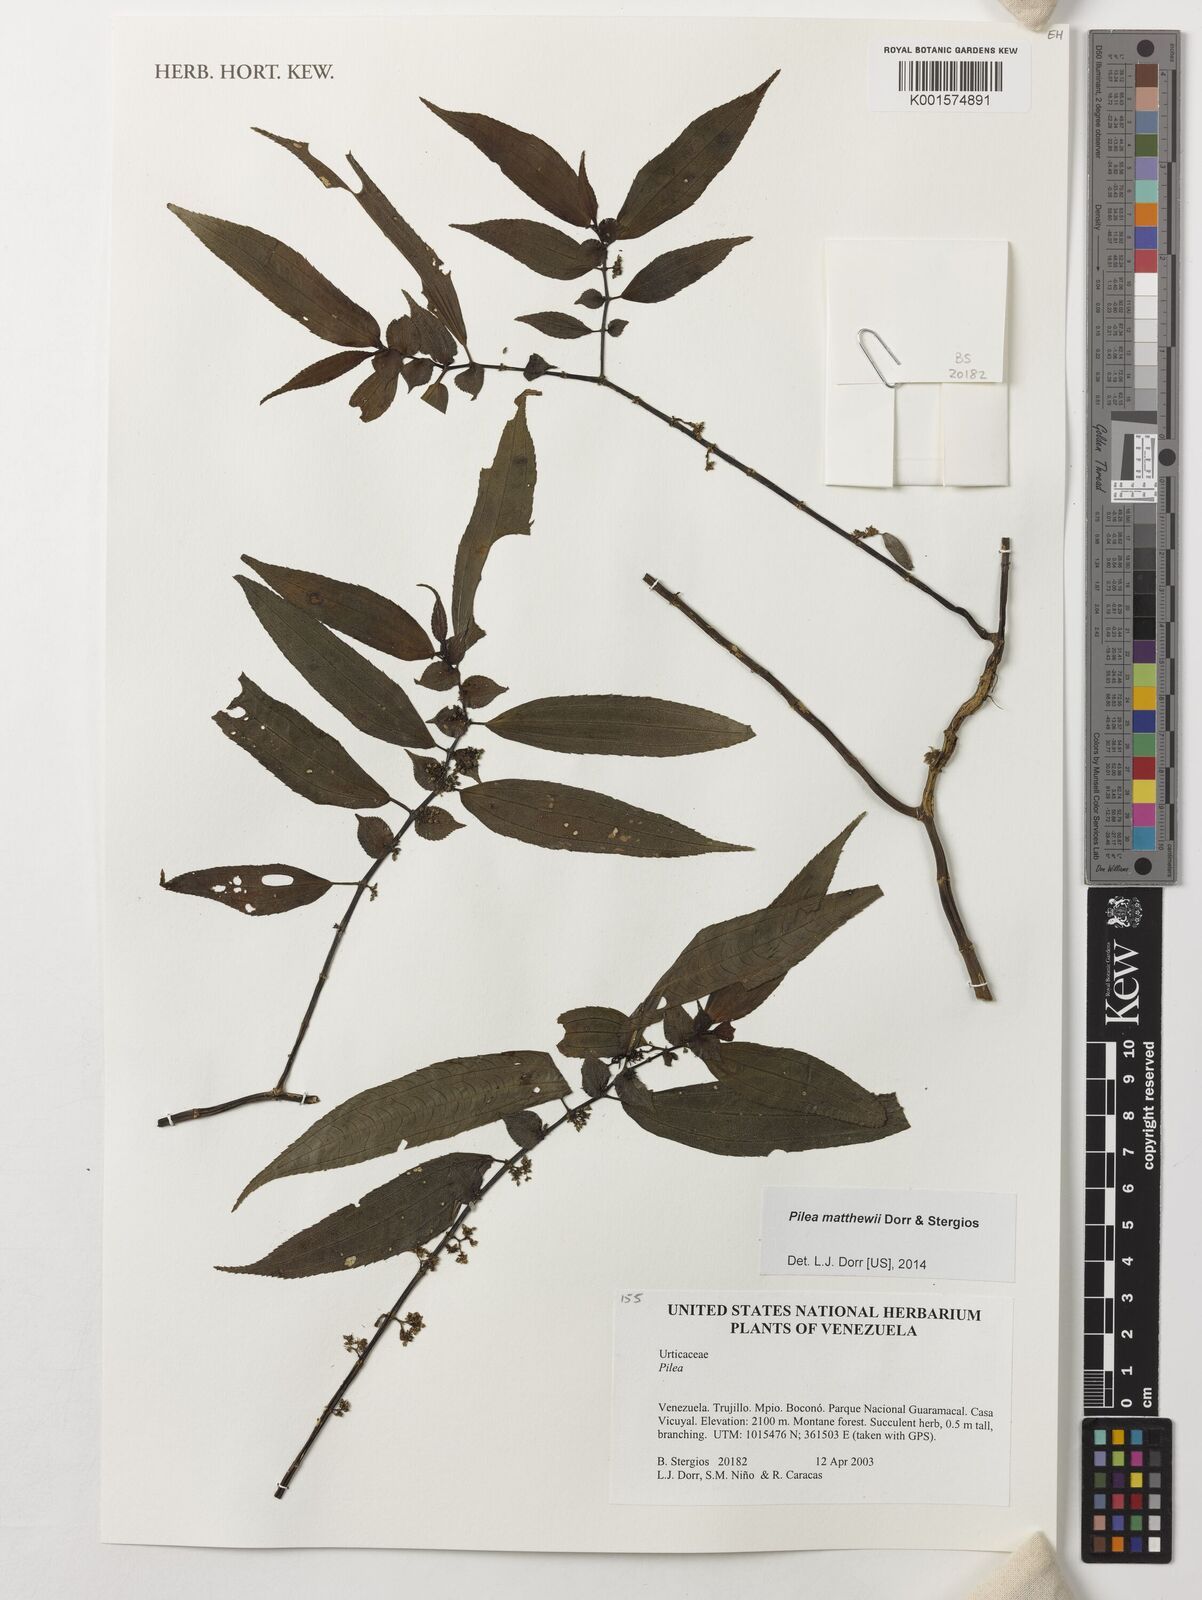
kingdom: Plantae
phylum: Tracheophyta
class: Magnoliopsida
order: Rosales
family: Urticaceae
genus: Pilea
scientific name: Pilea
